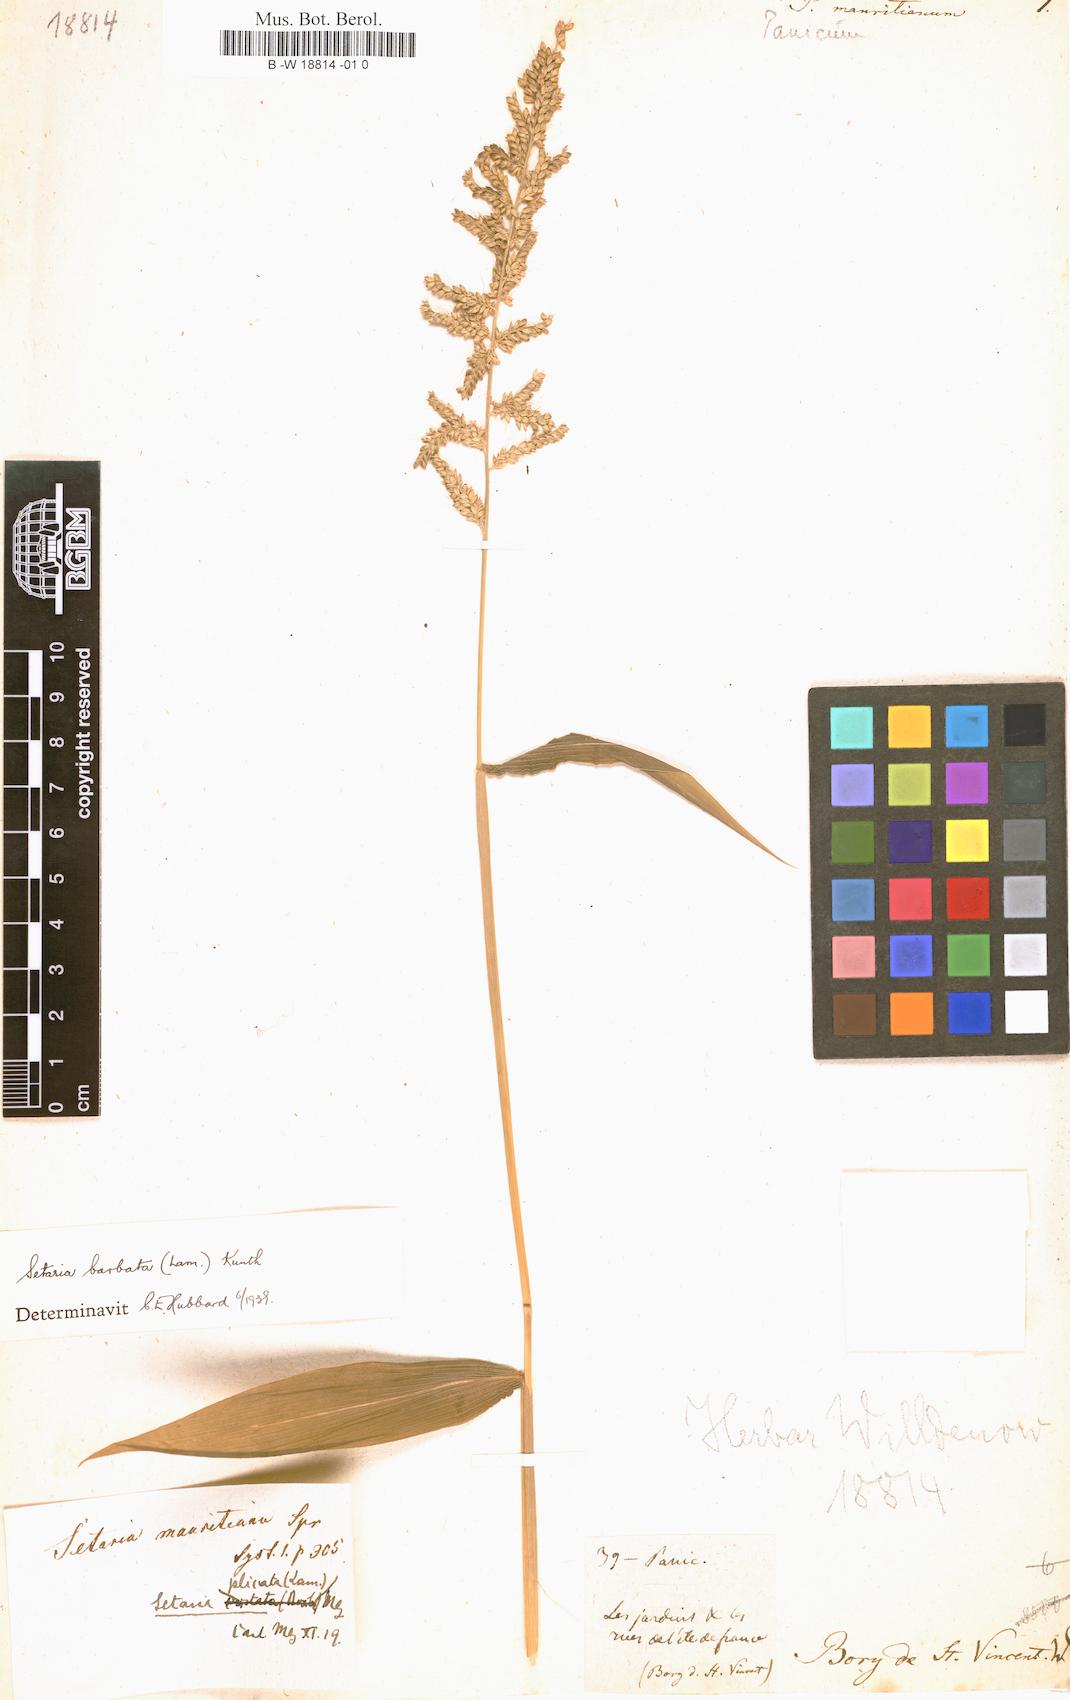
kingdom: Plantae
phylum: Tracheophyta
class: Liliopsida
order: Poales
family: Poaceae
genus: Setaria
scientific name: Setaria barbata
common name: East indian bristlegrass
